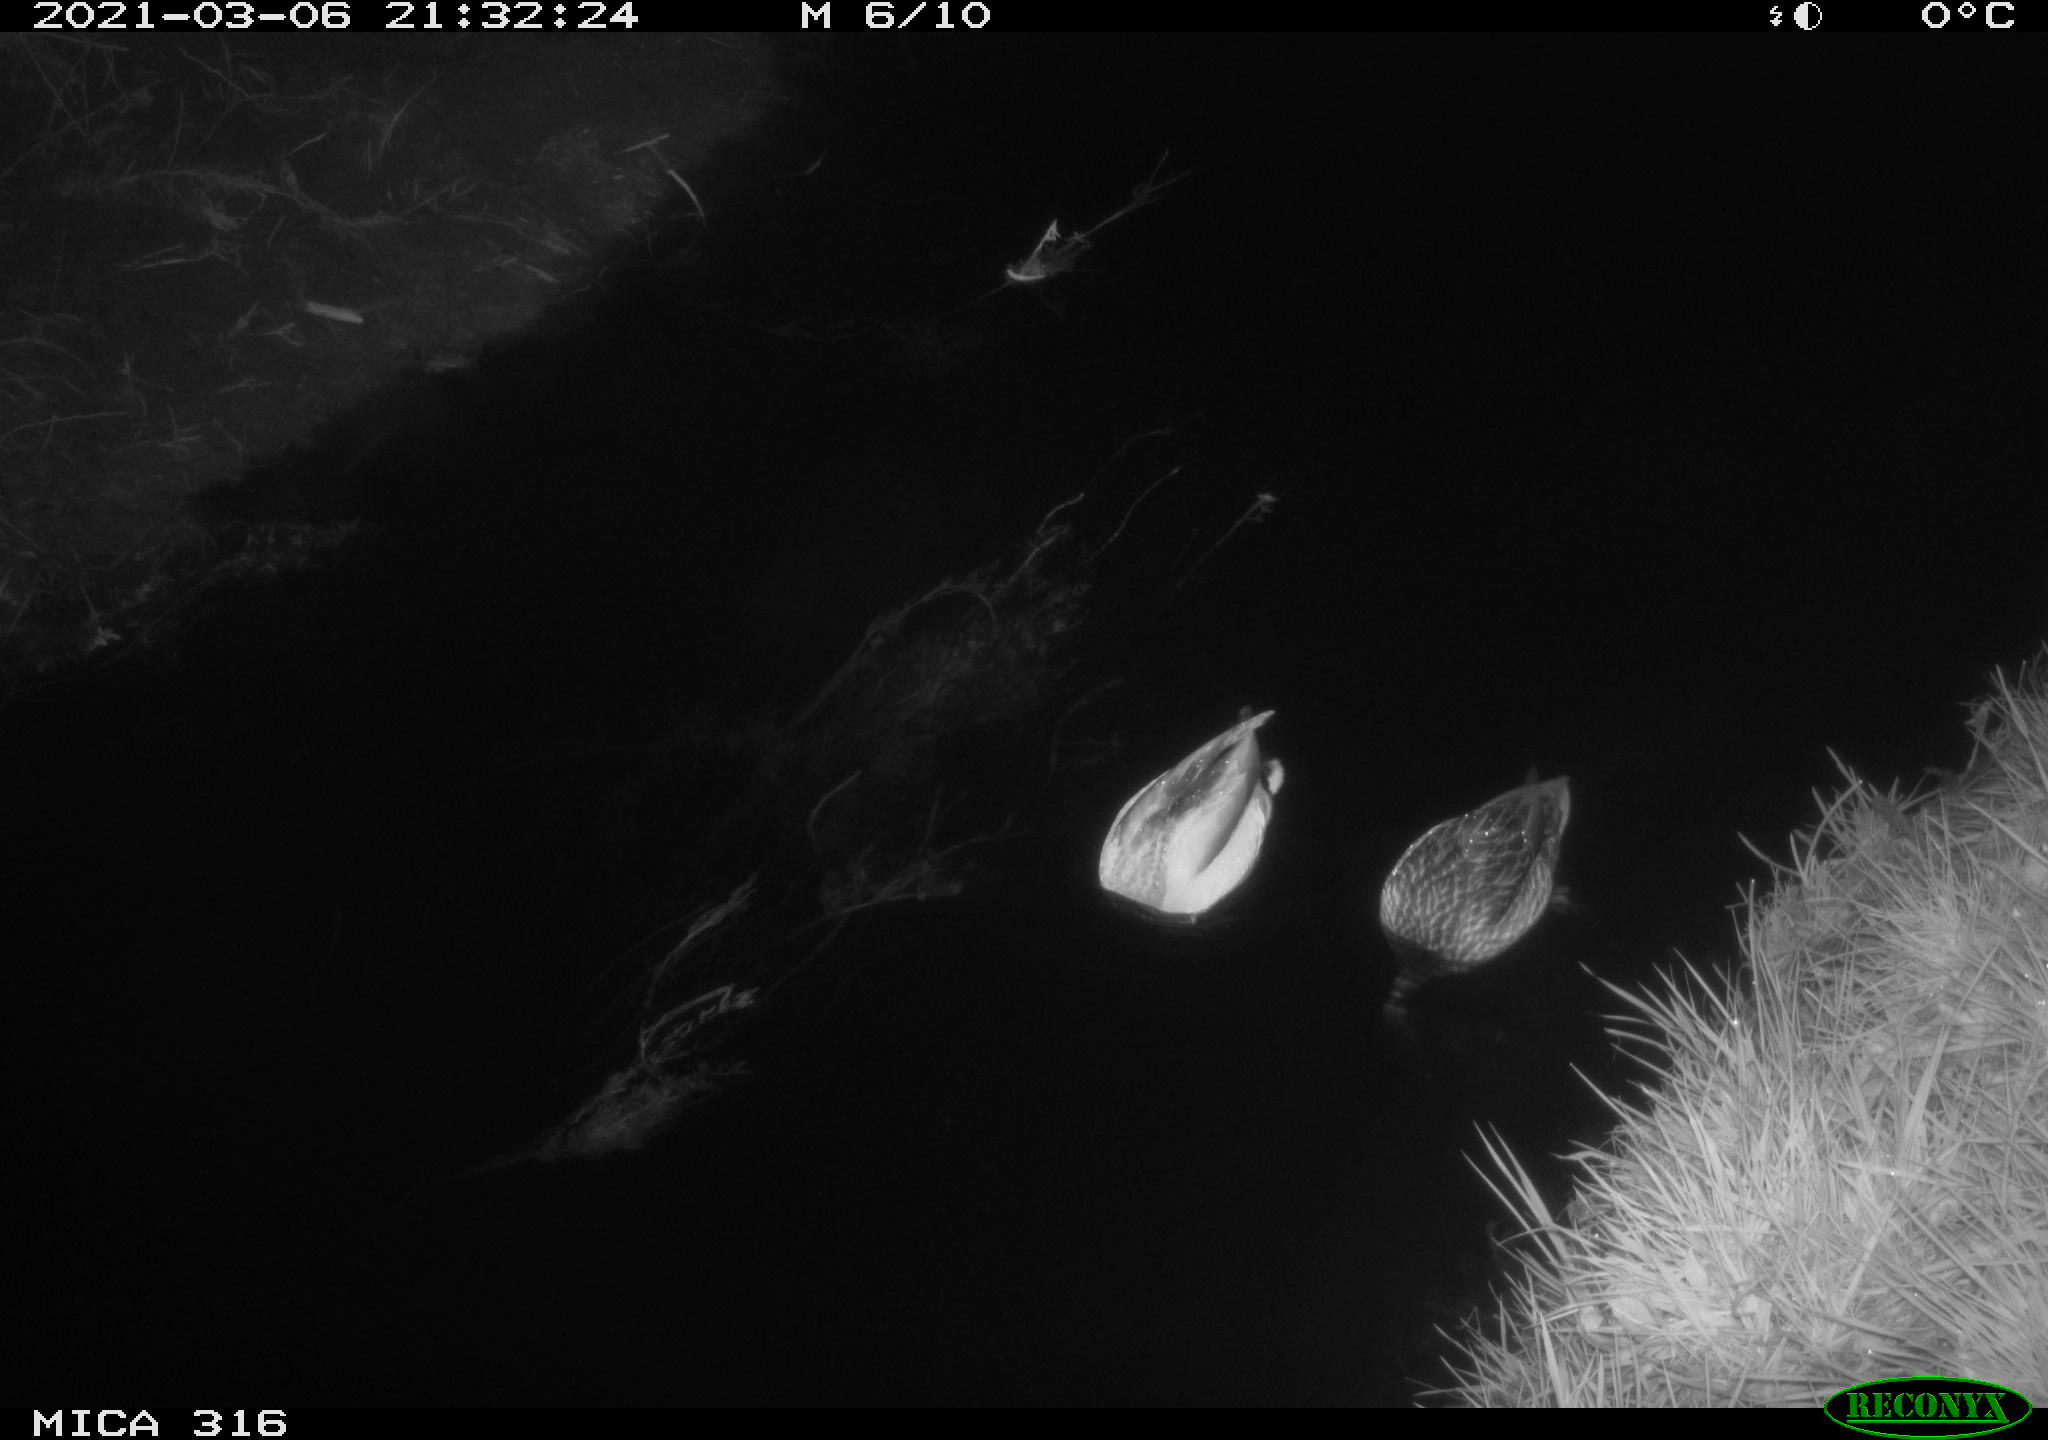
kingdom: Animalia
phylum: Chordata
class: Aves
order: Anseriformes
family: Anatidae
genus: Anas
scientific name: Anas platyrhynchos
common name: Mallard
